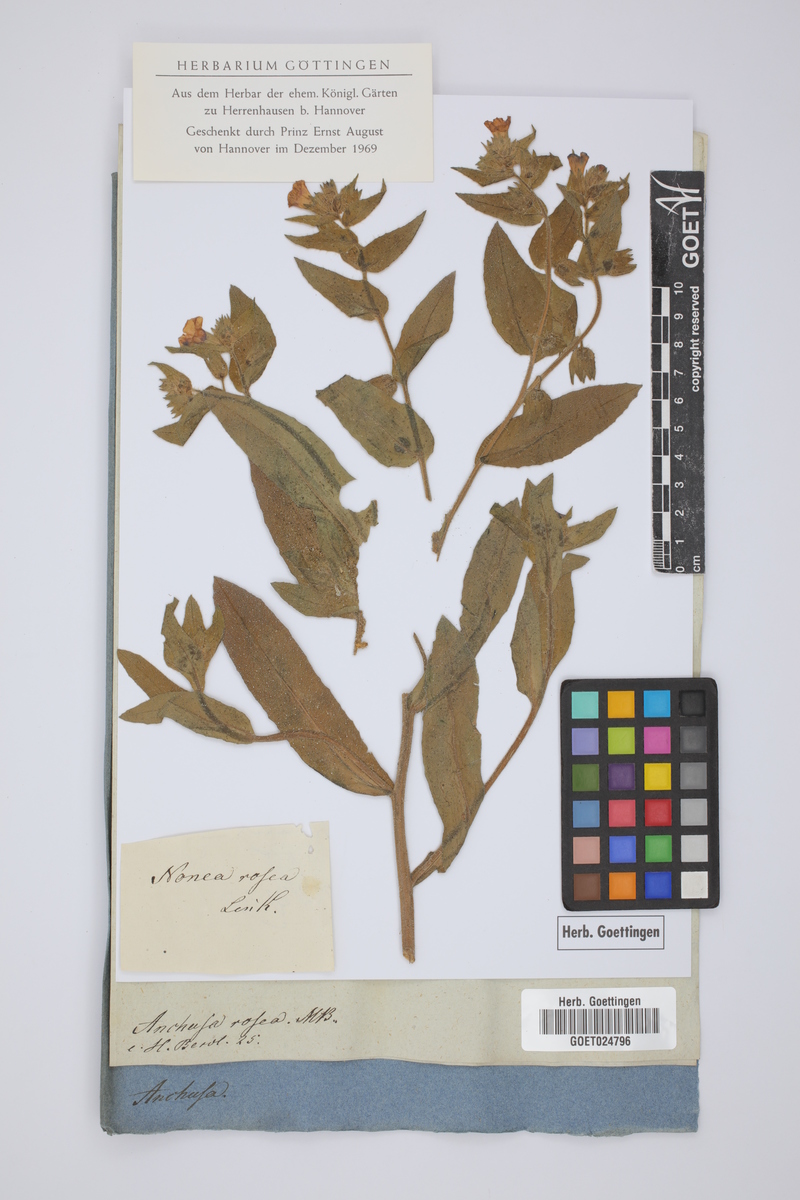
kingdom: Plantae
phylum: Tracheophyta
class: Magnoliopsida
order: Boraginales
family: Boraginaceae
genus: Nonea
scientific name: Nonea rosea
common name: Pink nonea
